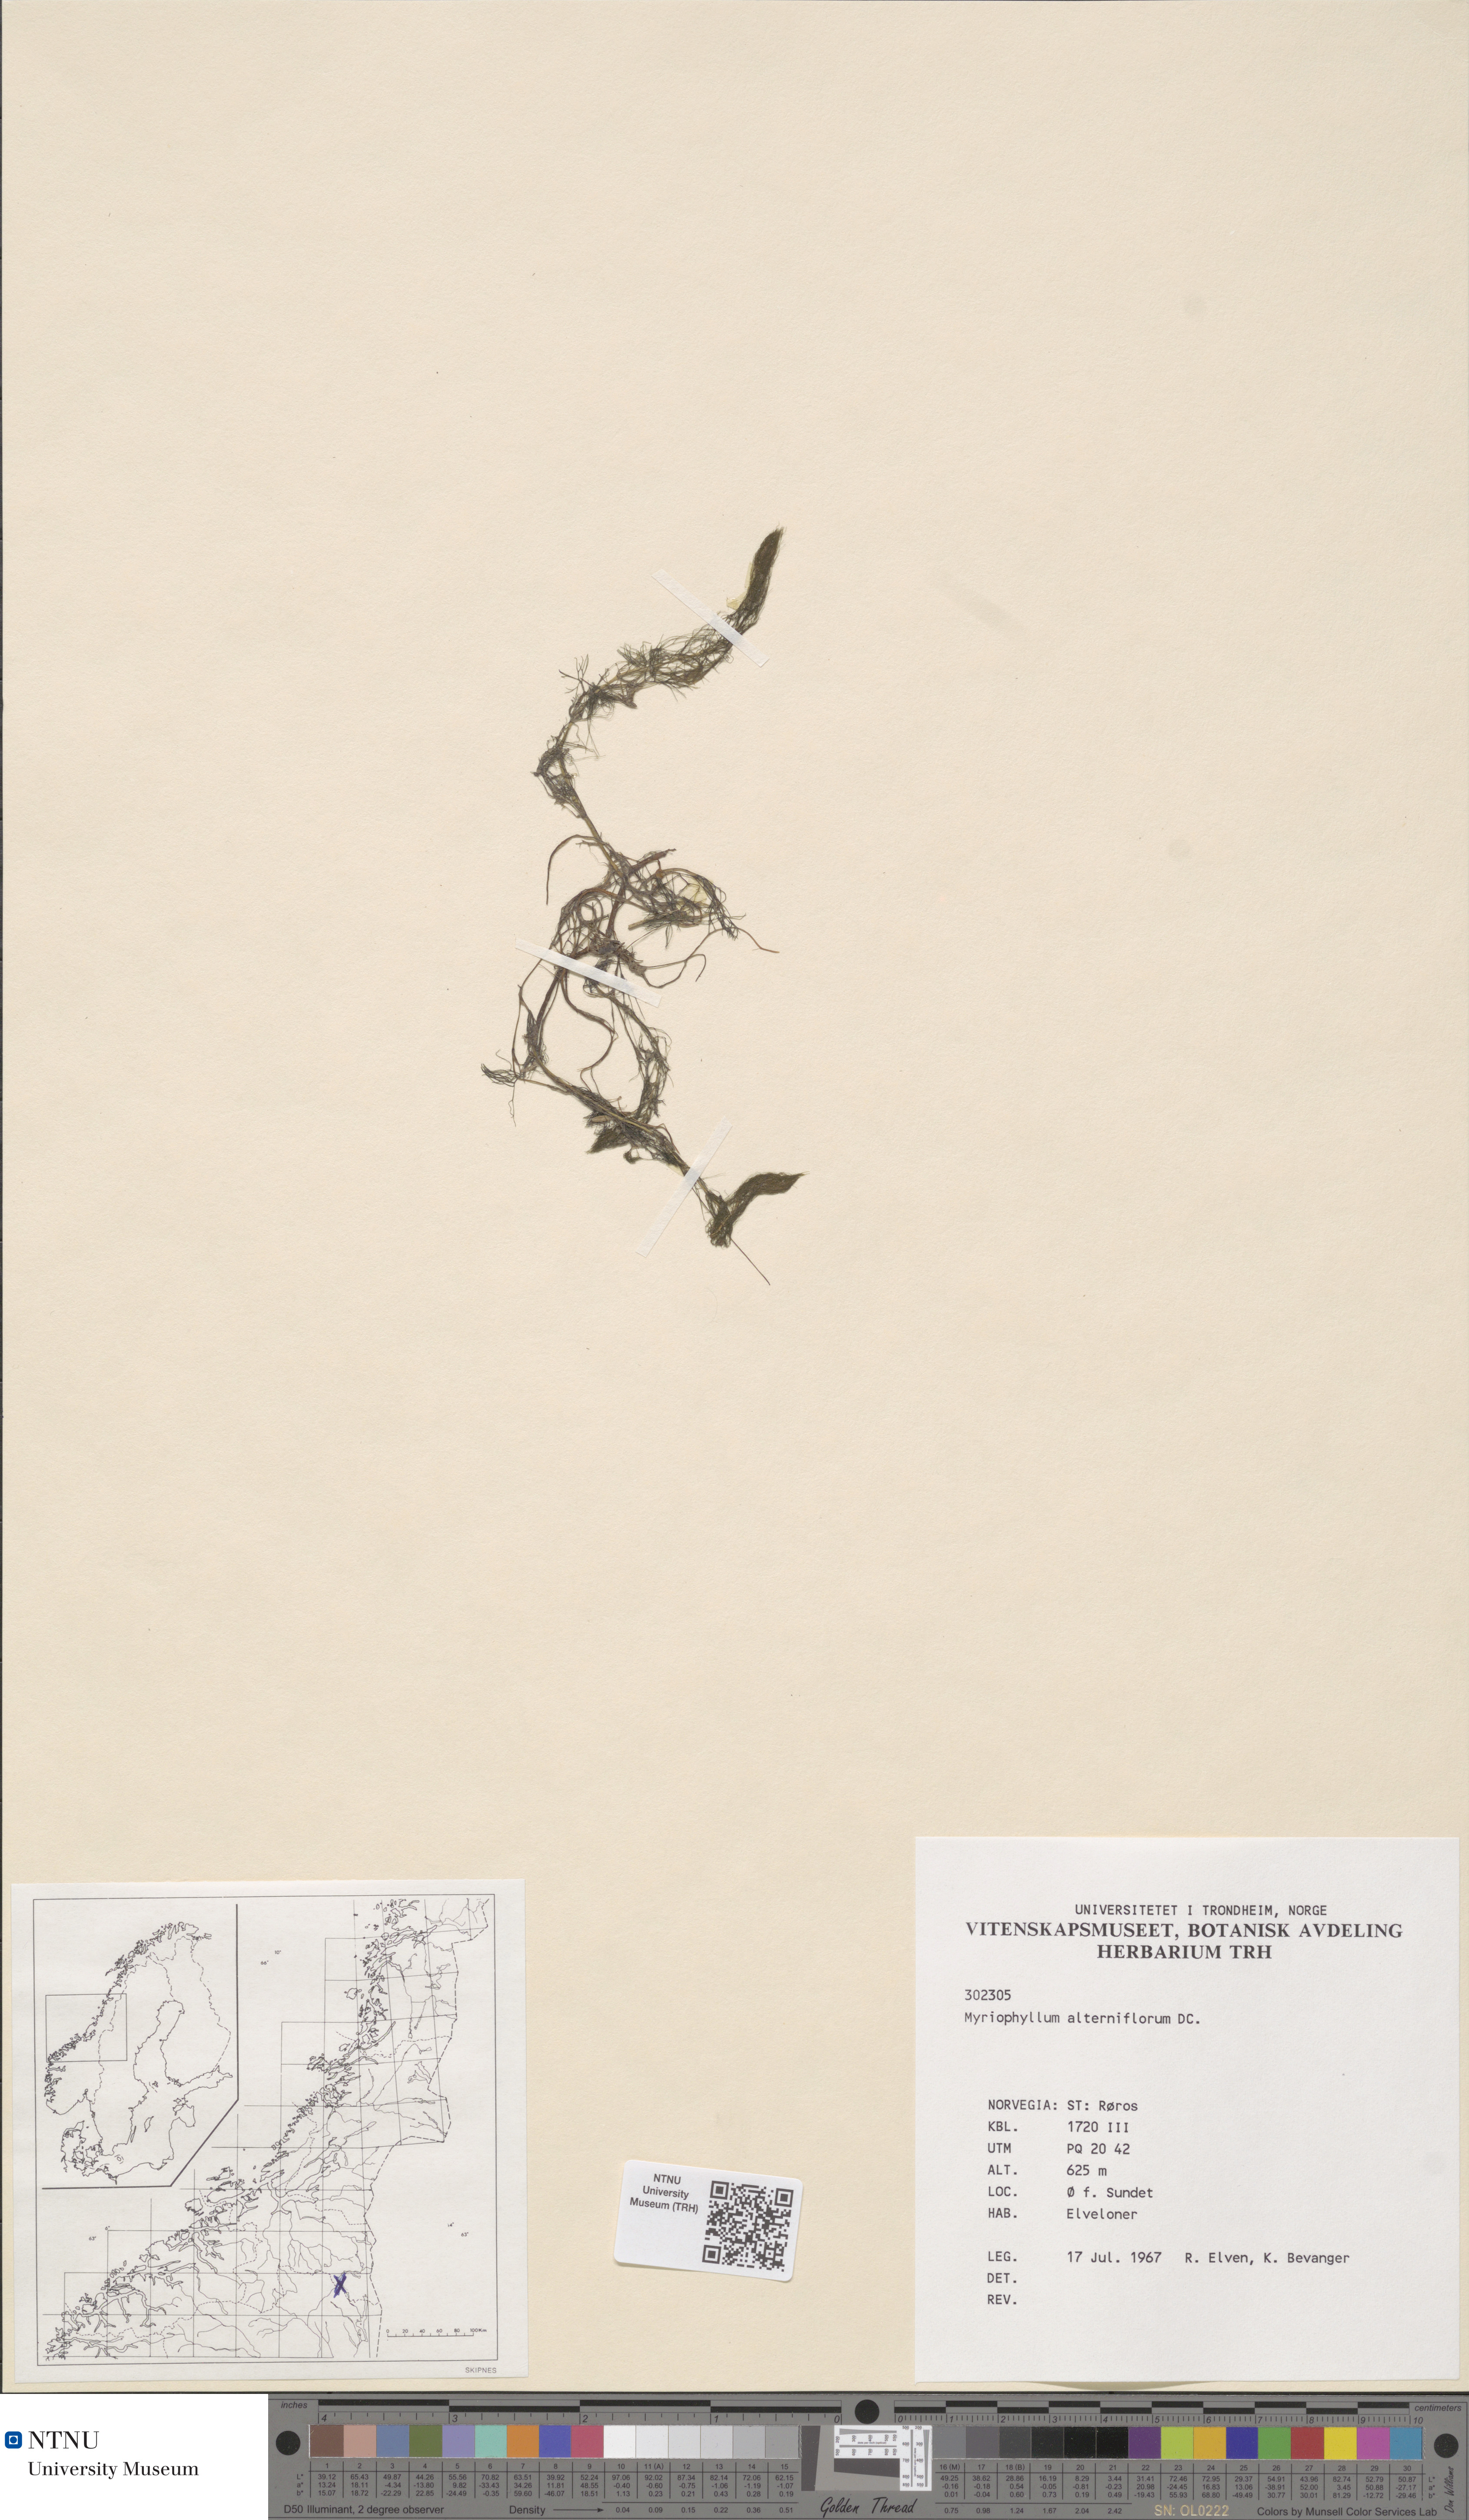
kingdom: Plantae
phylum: Tracheophyta
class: Magnoliopsida
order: Saxifragales
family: Haloragaceae
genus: Myriophyllum
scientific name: Myriophyllum alterniflorum
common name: Alternate water-milfoil
